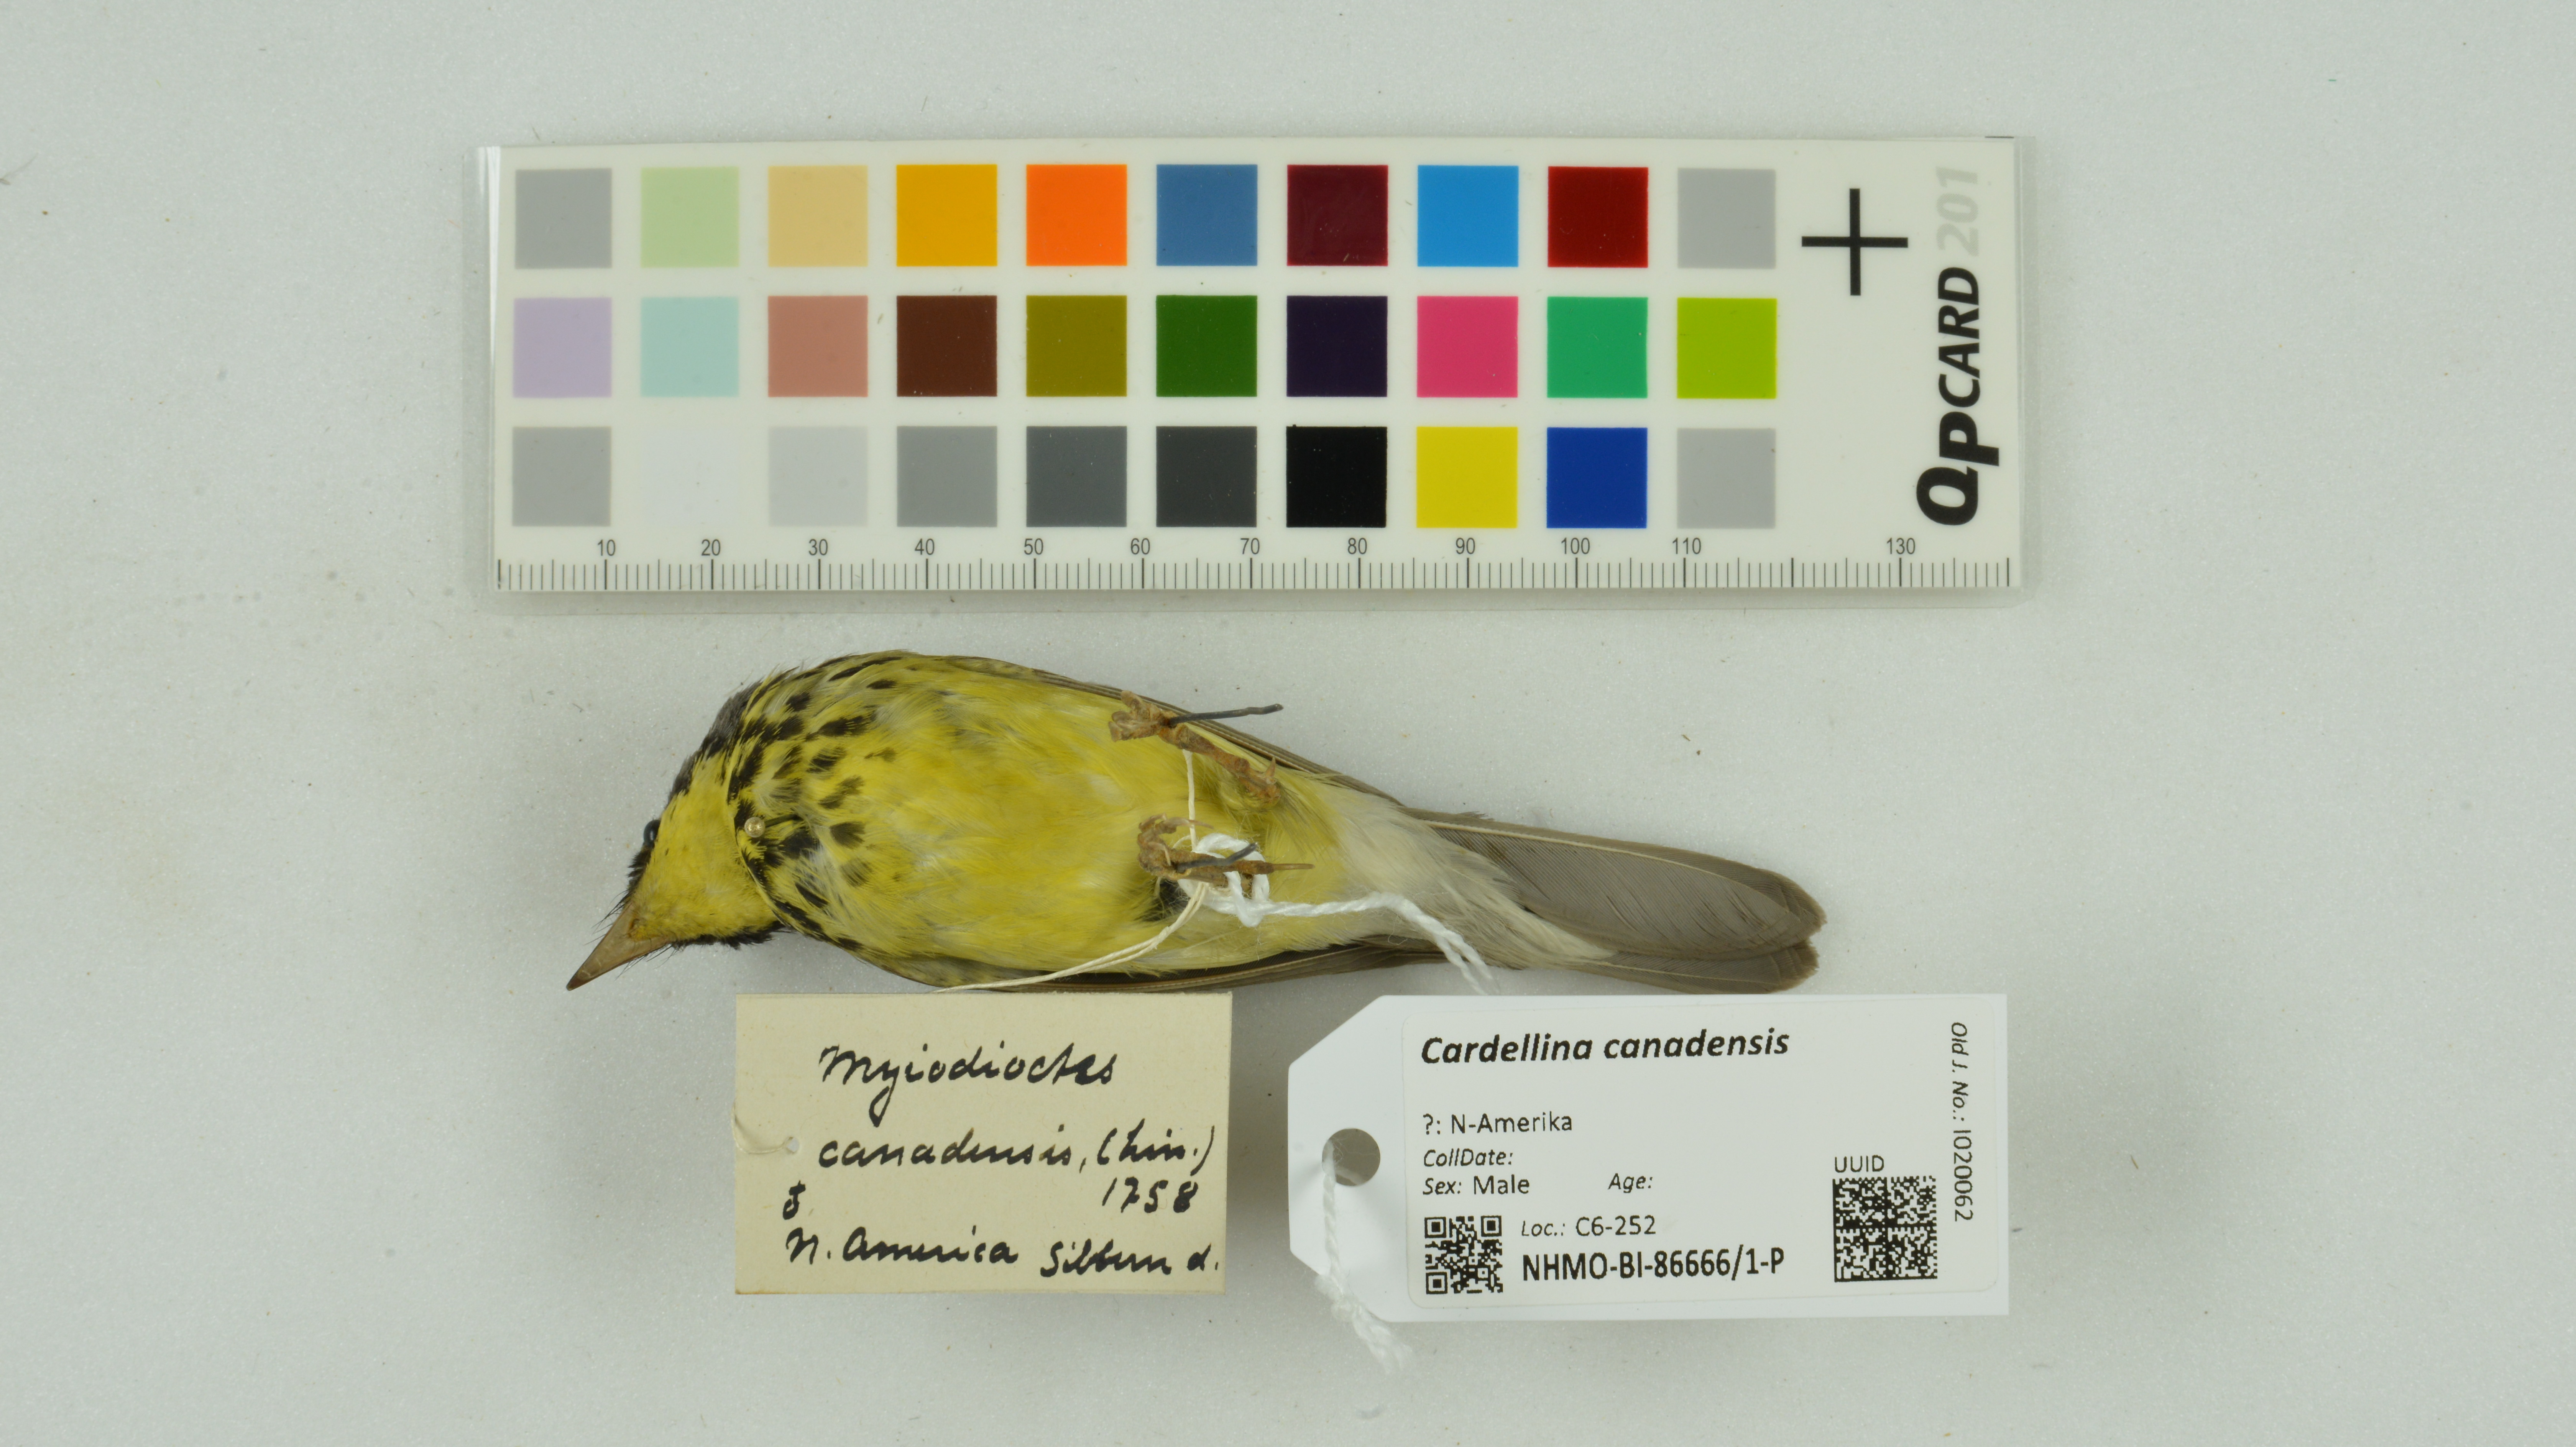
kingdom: Animalia
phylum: Chordata
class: Aves
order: Passeriformes
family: Parulidae
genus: Cardellina
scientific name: Cardellina canadensis
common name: Canada warbler
